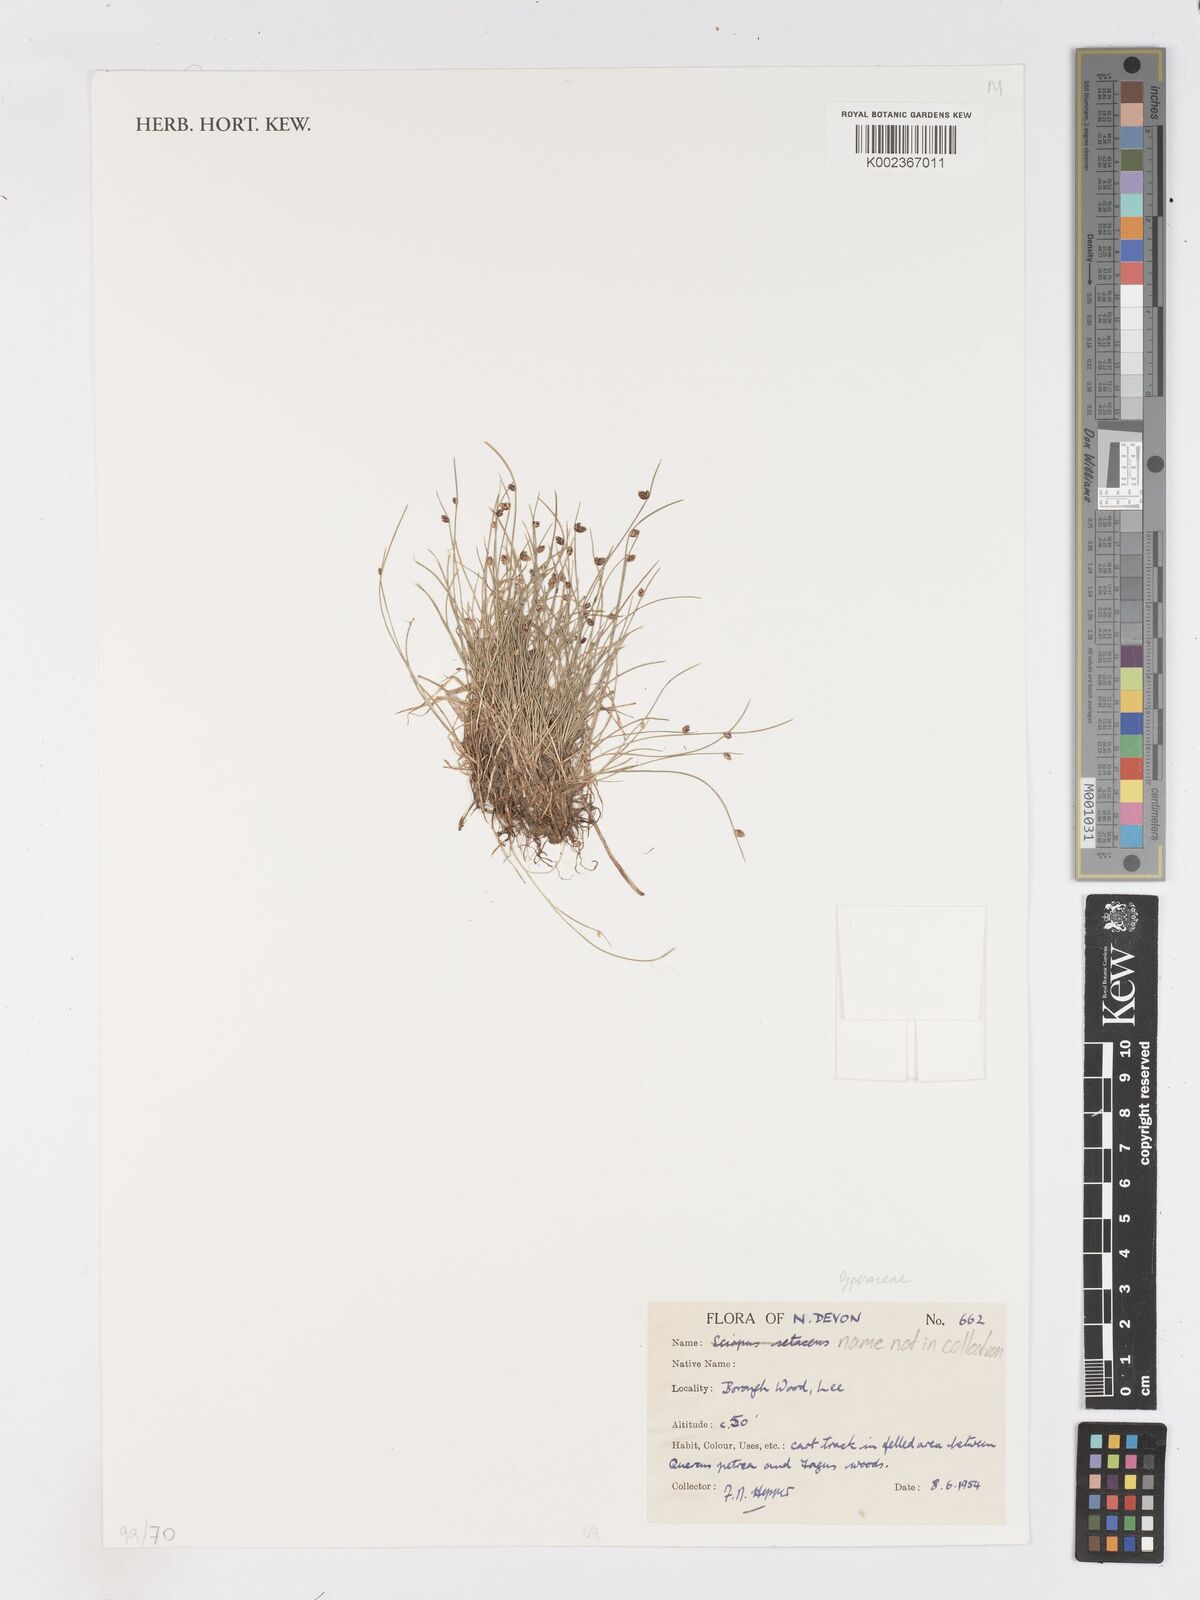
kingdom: Plantae
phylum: Tracheophyta
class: Liliopsida
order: Poales
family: Cyperaceae
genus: Isolepis
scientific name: Isolepis setacea
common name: Bristle club-rush
